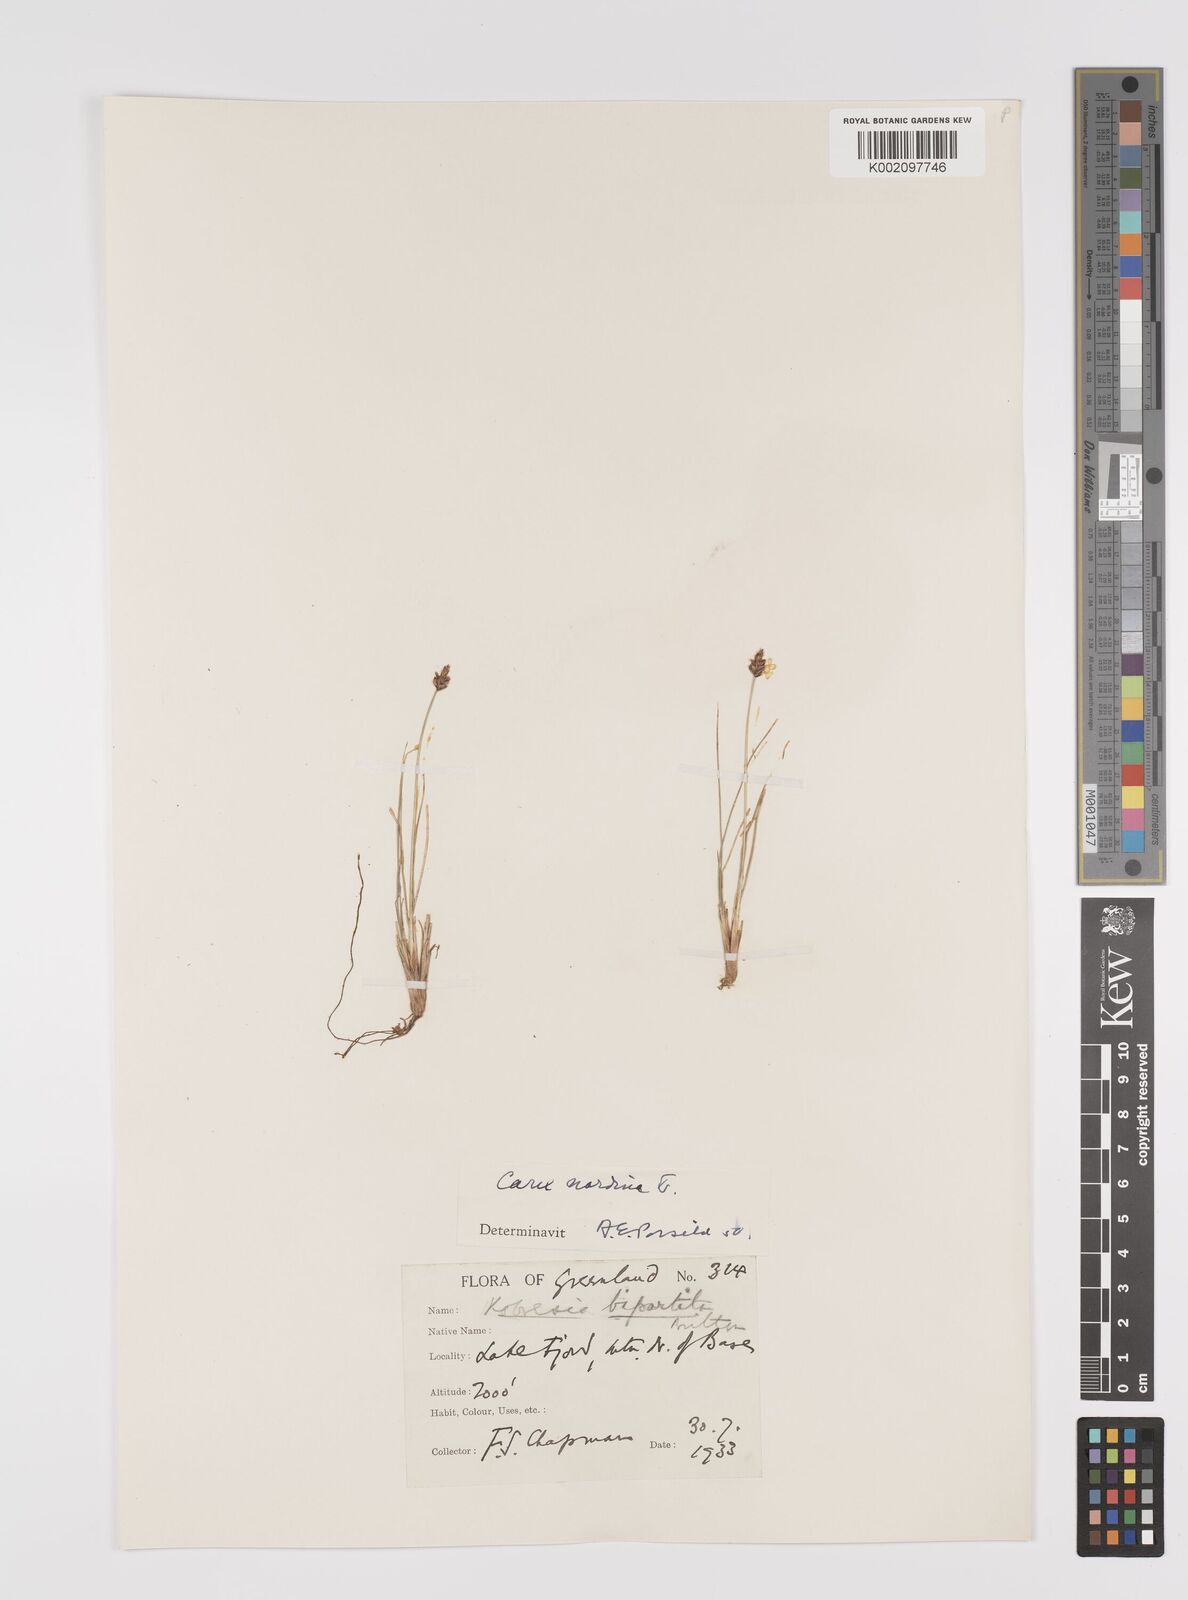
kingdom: Plantae
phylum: Tracheophyta
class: Liliopsida
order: Poales
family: Cyperaceae
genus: Carex
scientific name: Carex nardina
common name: Nard sedge
